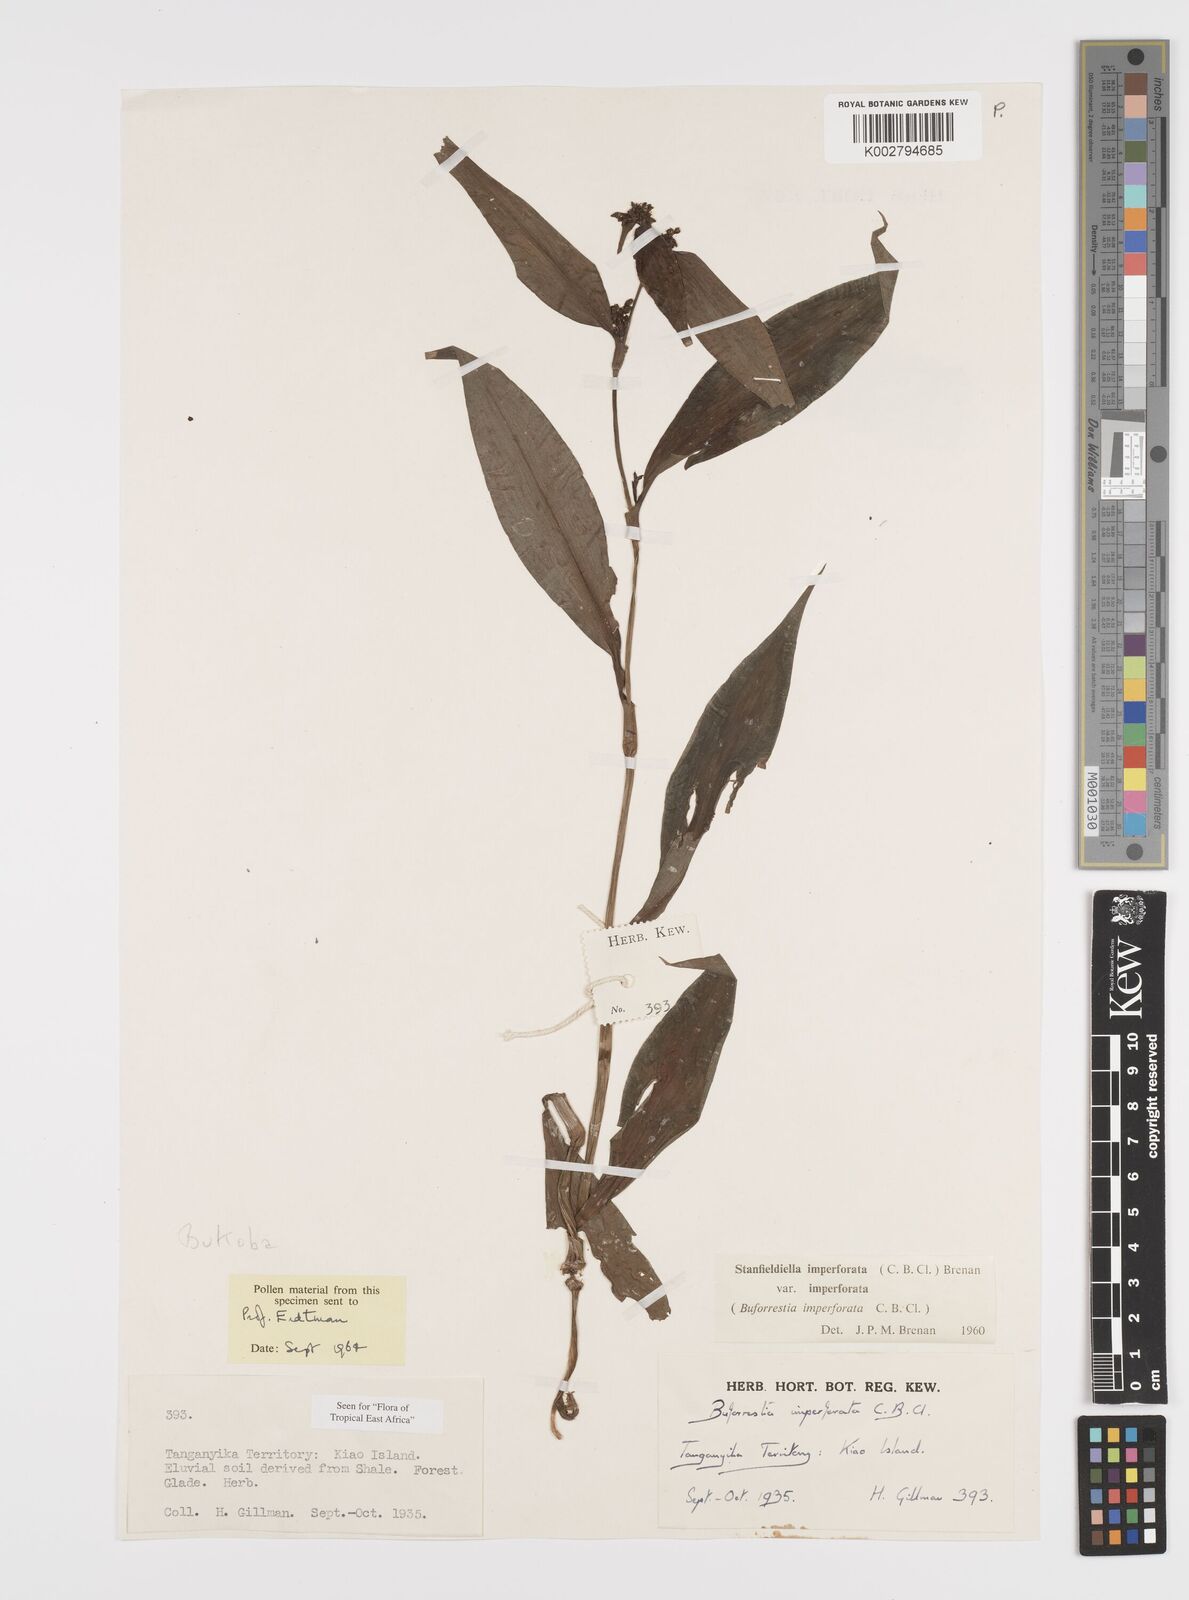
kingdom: Plantae
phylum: Tracheophyta
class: Liliopsida
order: Commelinales
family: Commelinaceae
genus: Stanfieldiella
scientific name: Stanfieldiella imperforata
